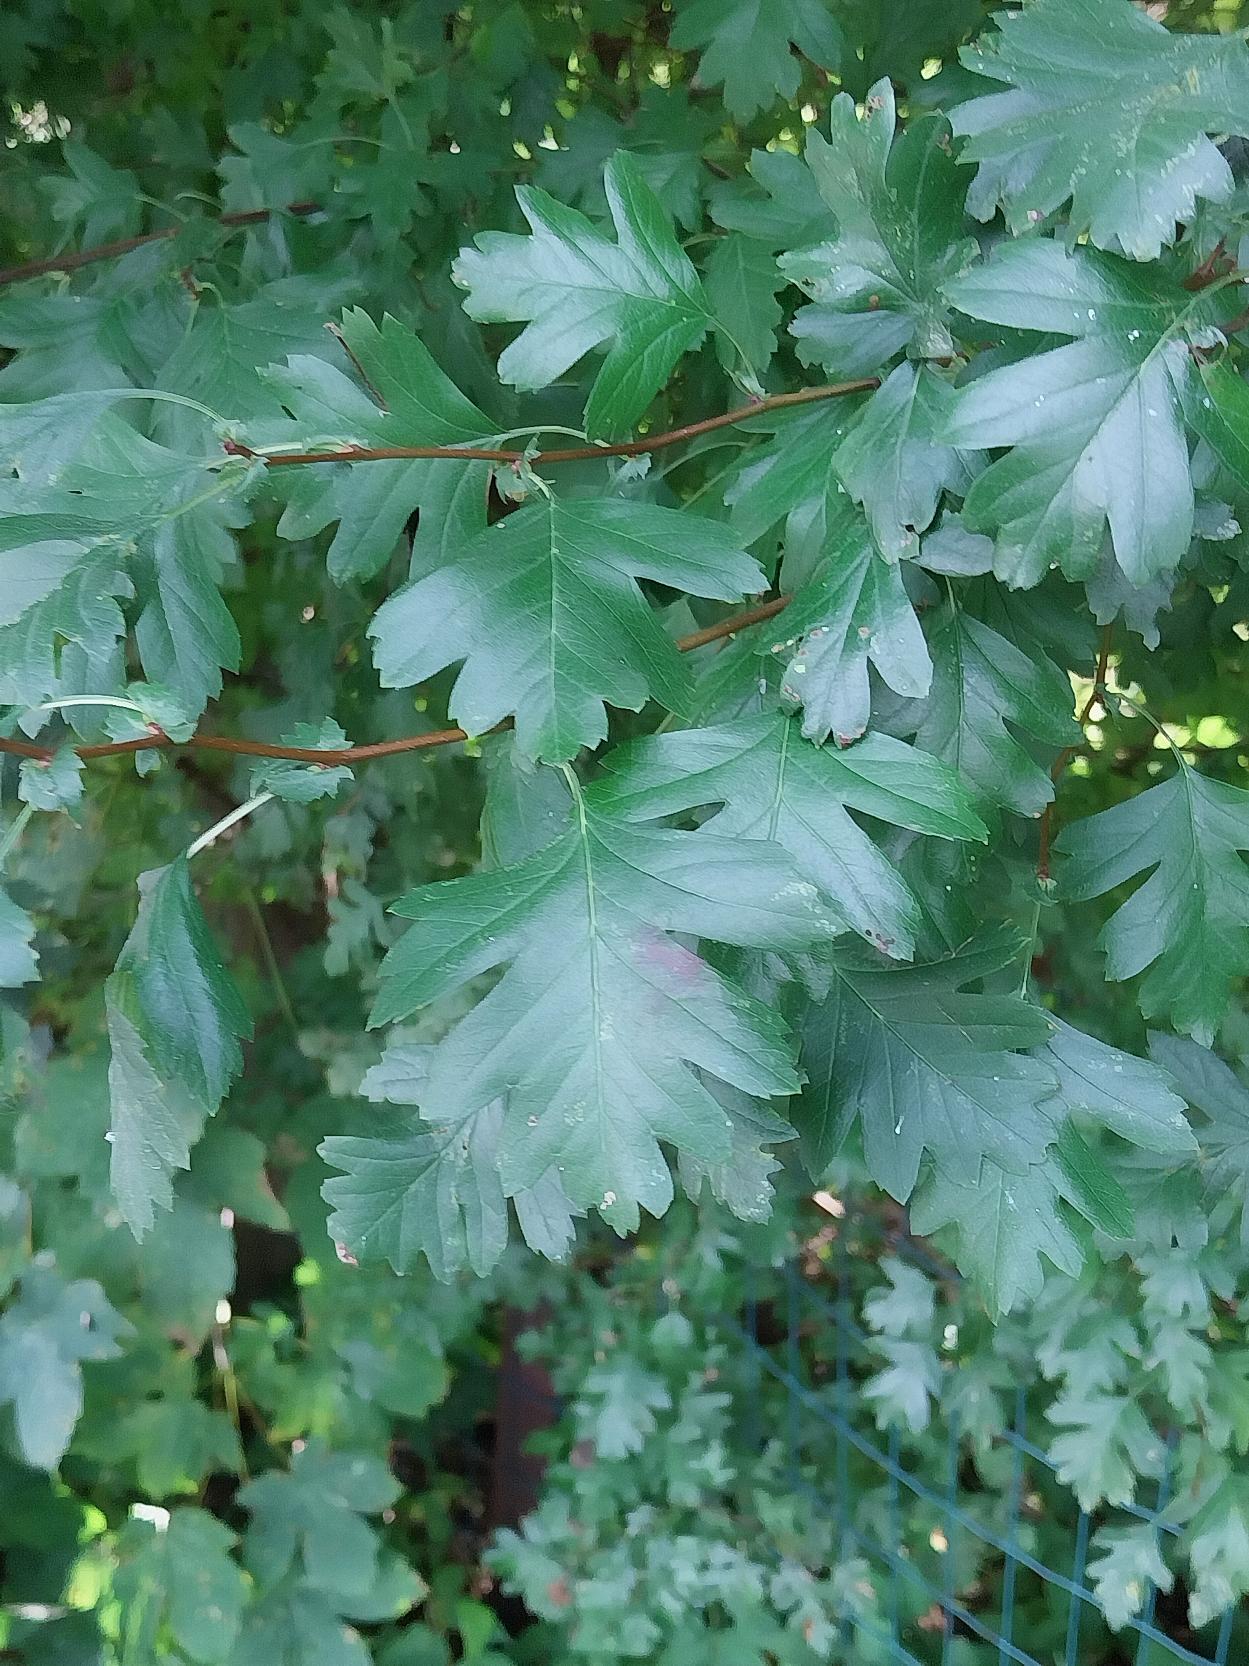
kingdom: Plantae
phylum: Tracheophyta
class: Magnoliopsida
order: Rosales
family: Rosaceae
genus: Crataegus
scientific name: Crataegus subsphaerica
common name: Engriflet hvidtjørn × koral-hvidtjørn
